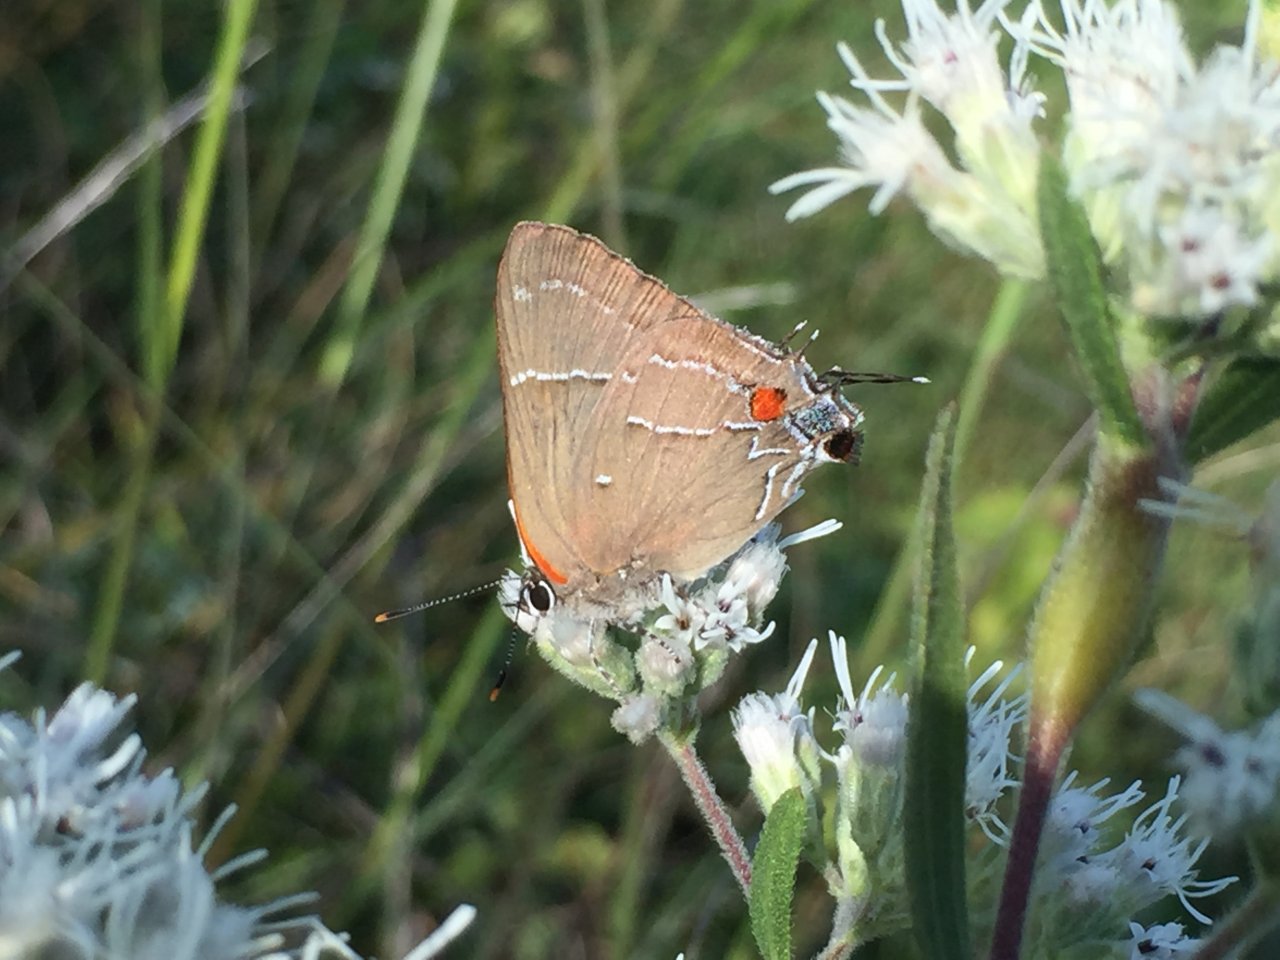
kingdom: Animalia
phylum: Arthropoda
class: Insecta
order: Lepidoptera
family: Lycaenidae
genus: Parrhasius
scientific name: Parrhasius m-album
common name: White-m Hairstreak
